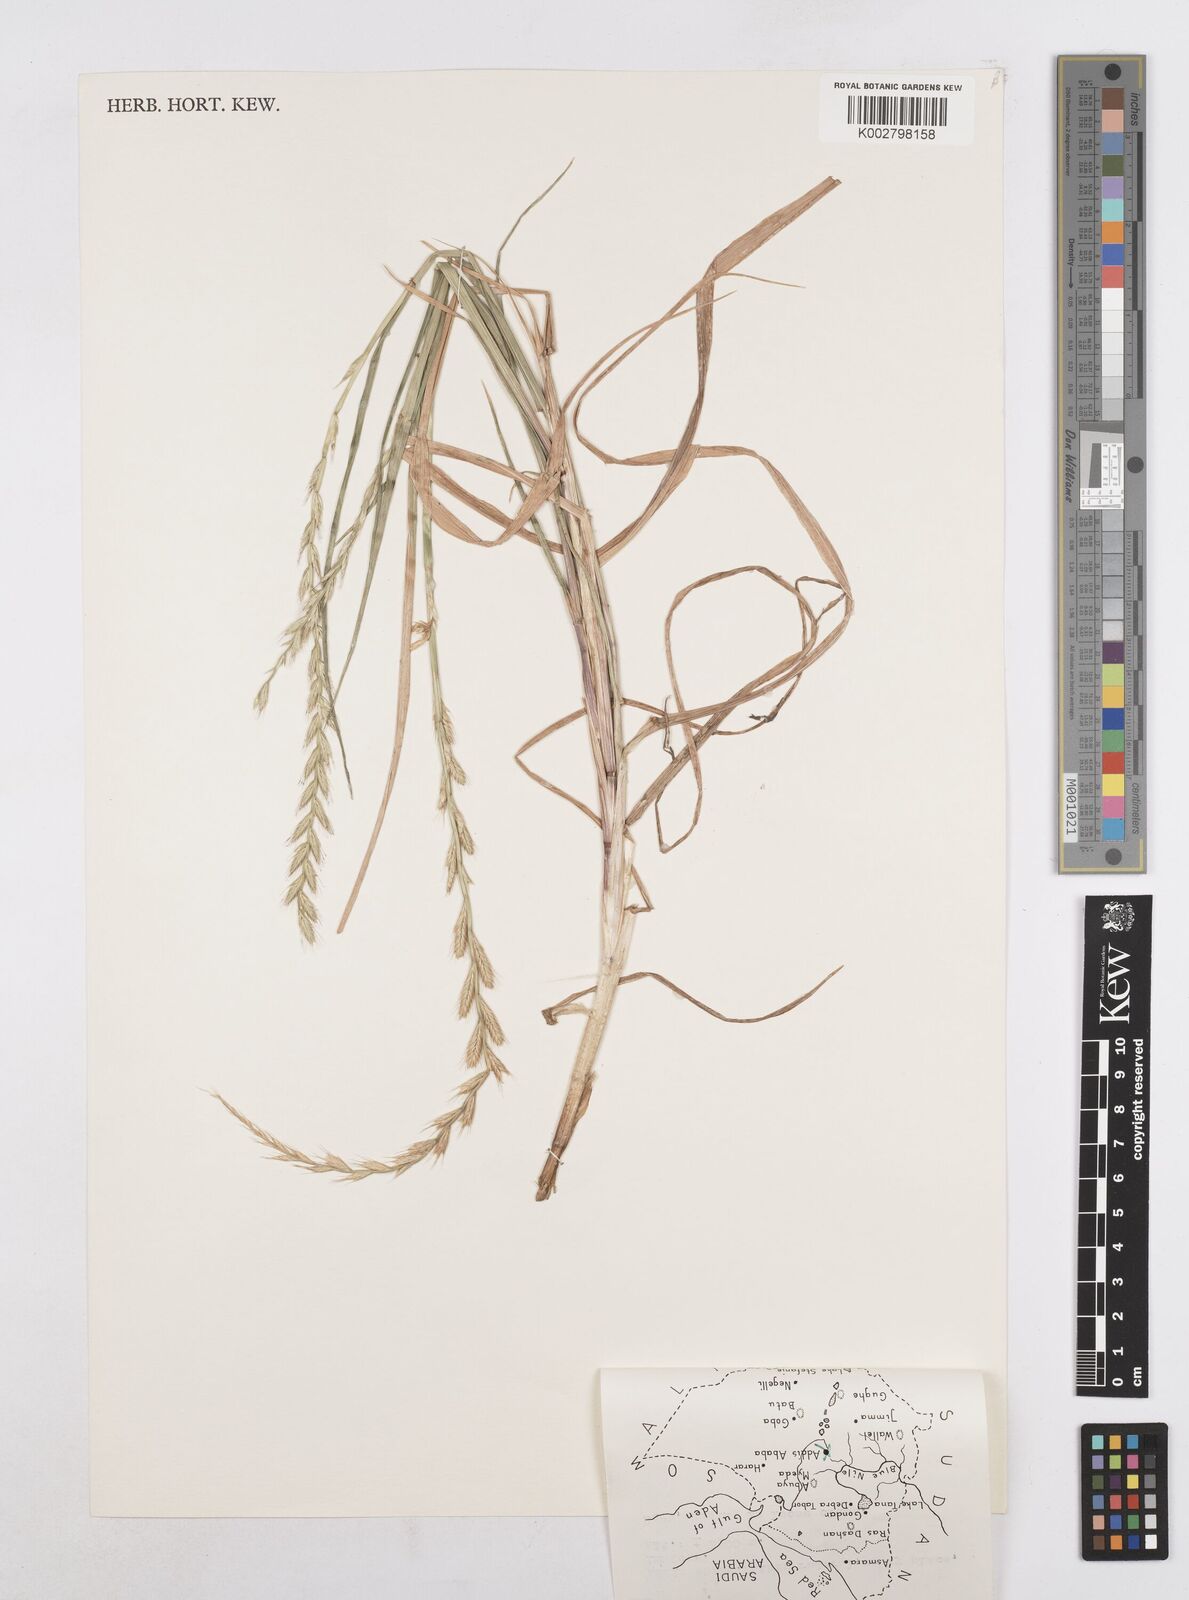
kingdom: Plantae
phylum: Tracheophyta
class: Liliopsida
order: Poales
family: Poaceae
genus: Lolium
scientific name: Lolium multiflorum
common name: Annual ryegrass
